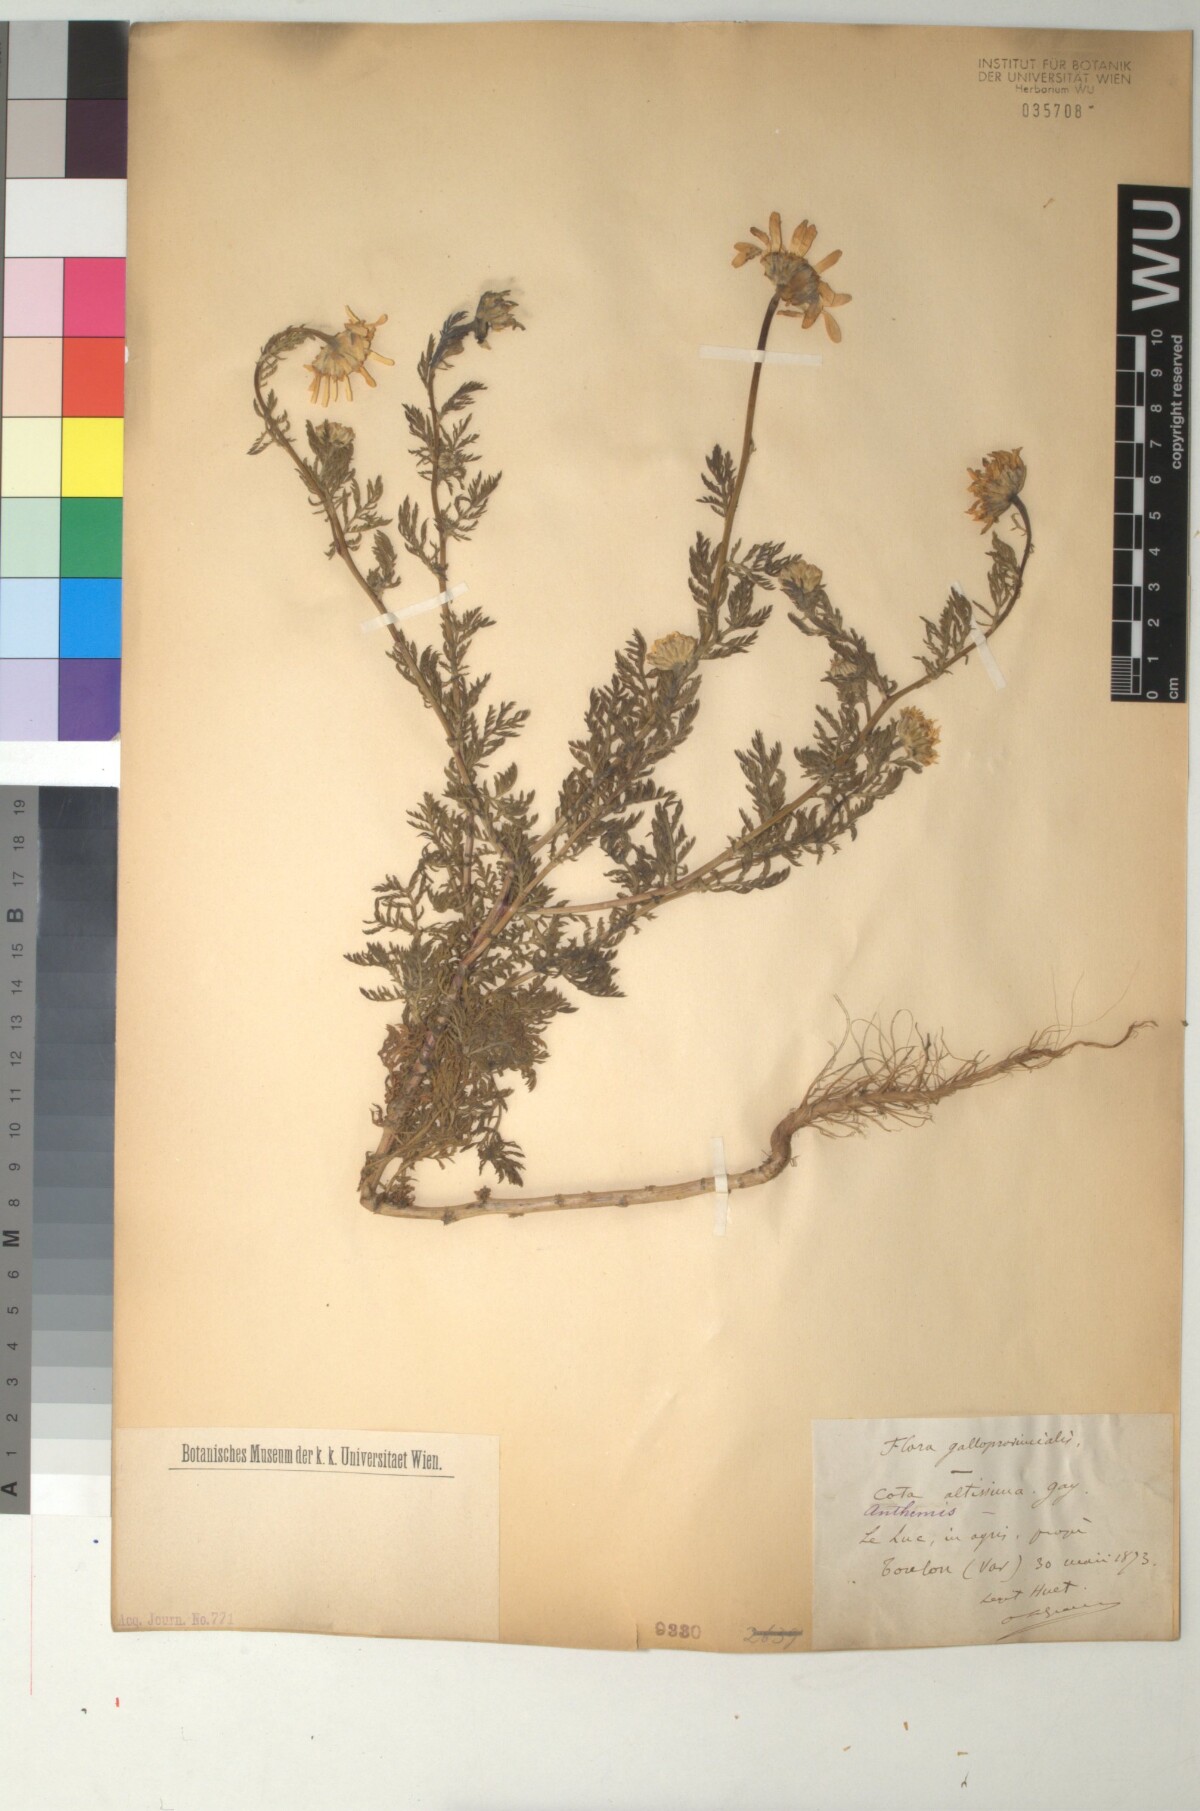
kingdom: Plantae
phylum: Tracheophyta
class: Magnoliopsida
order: Asterales
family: Asteraceae
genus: Cota
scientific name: Cota altissima
